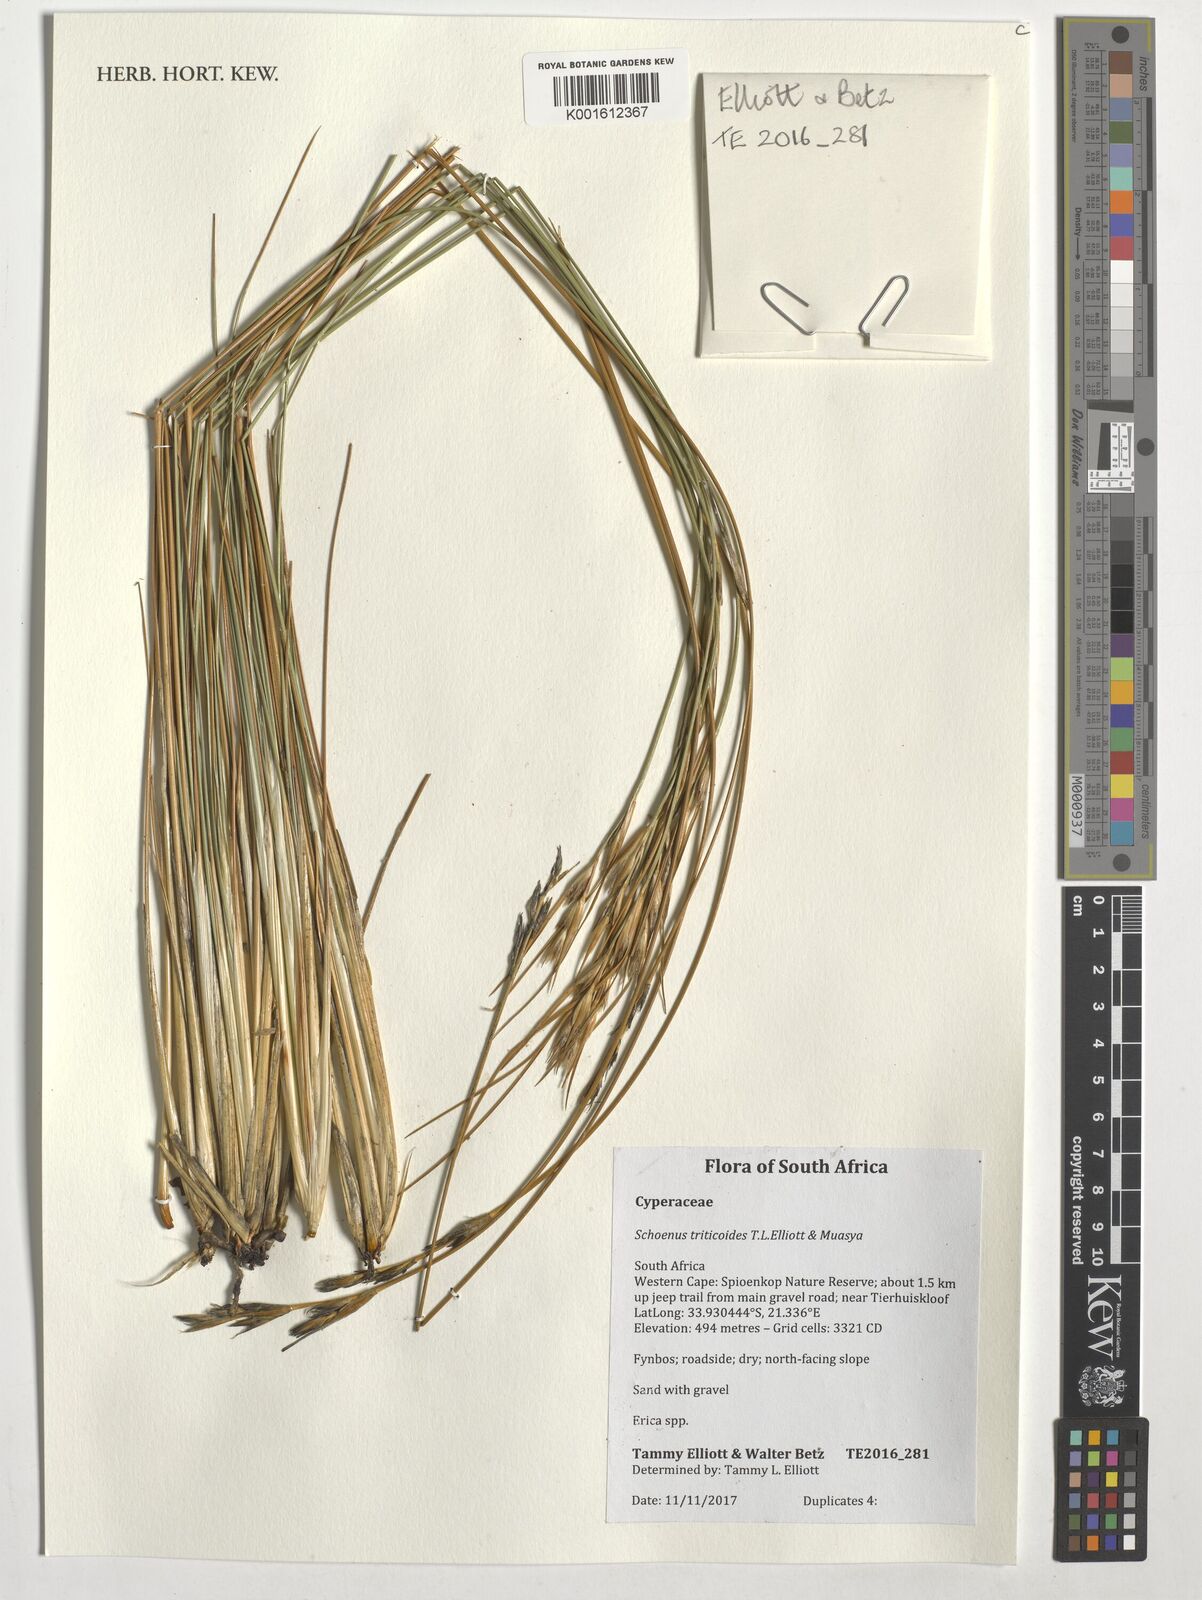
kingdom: Plantae
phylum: Tracheophyta
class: Liliopsida
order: Poales
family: Cyperaceae
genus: Schoenus
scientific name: Schoenus triticoides
